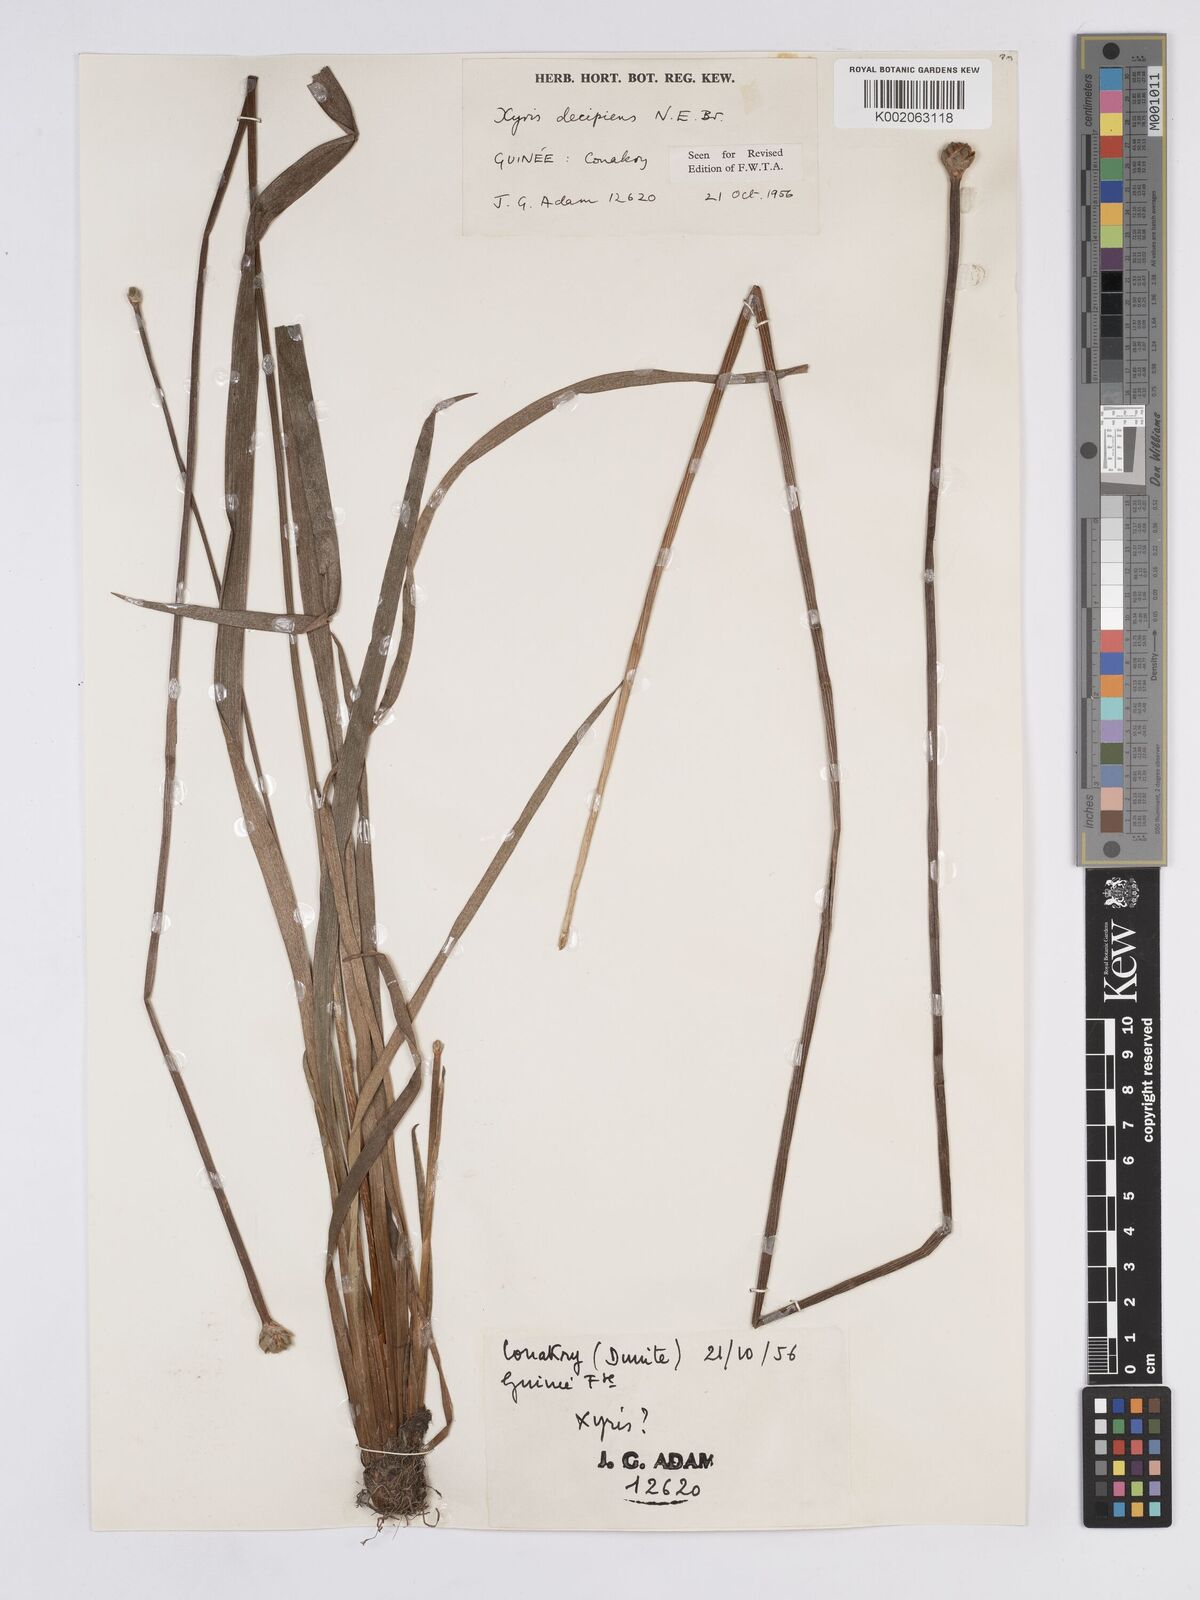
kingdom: Plantae
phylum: Tracheophyta
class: Liliopsida
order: Poales
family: Xyridaceae
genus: Xyris
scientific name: Xyris decipiens
